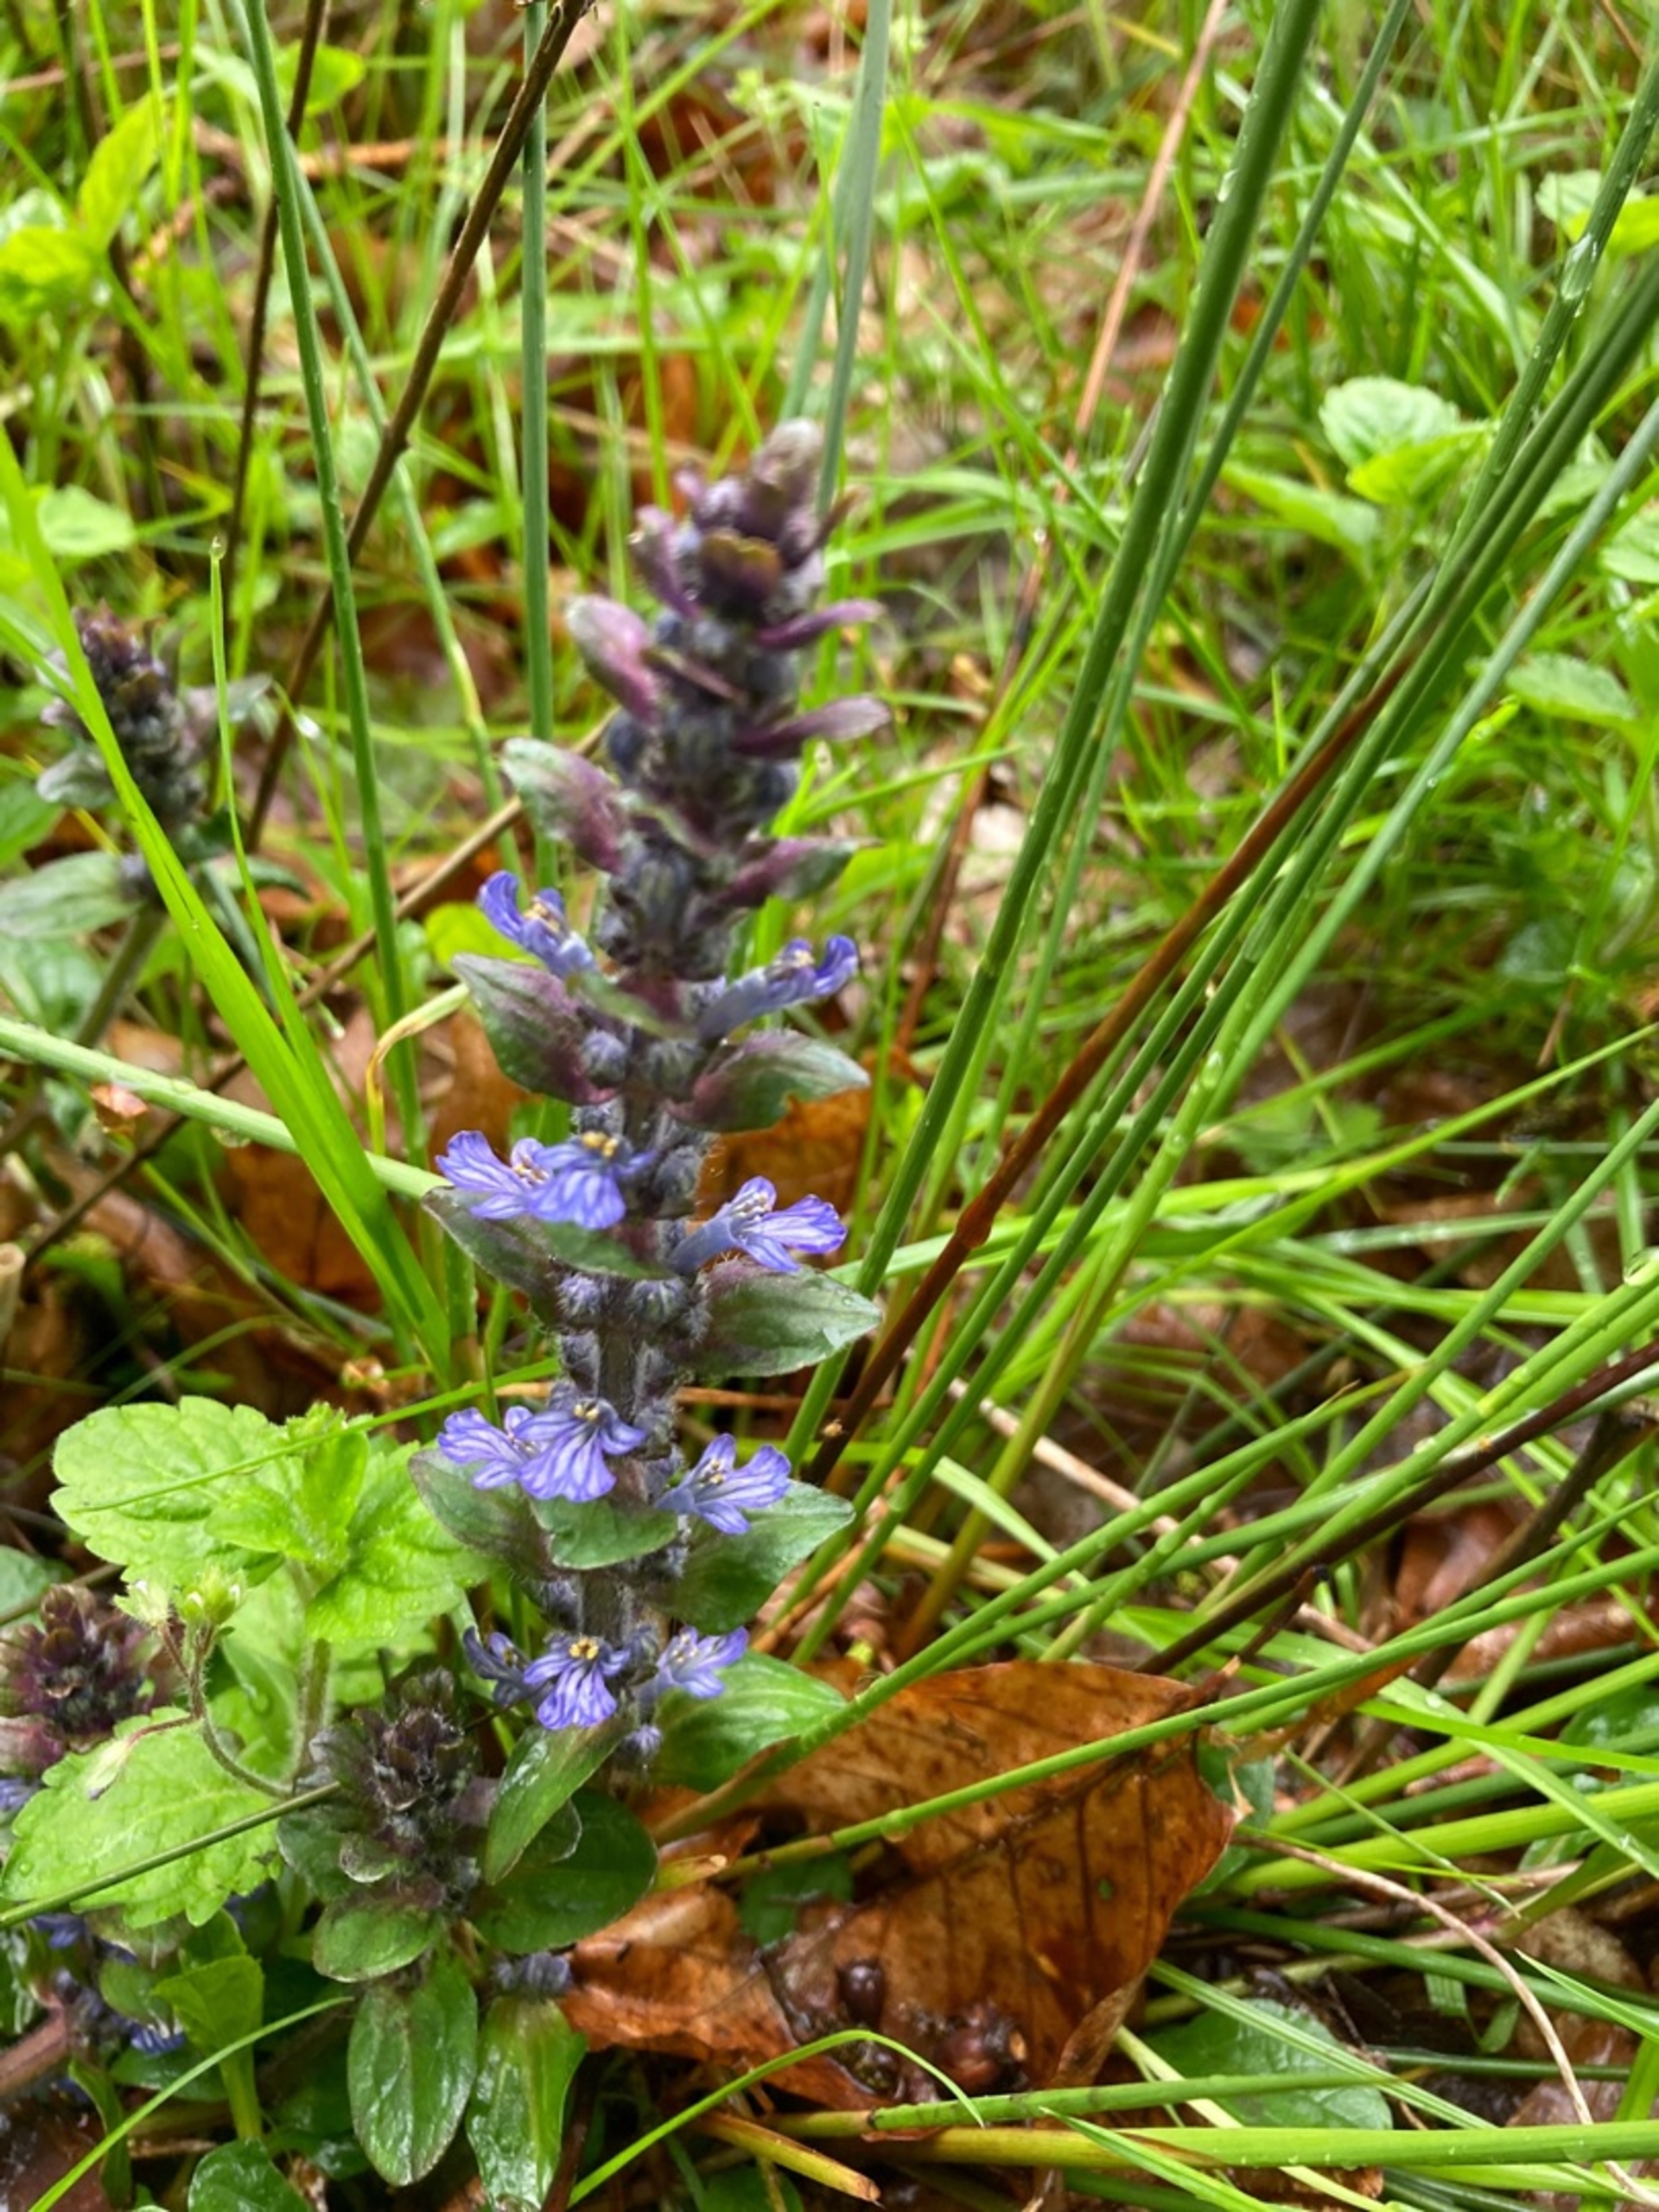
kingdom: Plantae
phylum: Tracheophyta
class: Magnoliopsida
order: Lamiales
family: Lamiaceae
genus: Ajuga
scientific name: Ajuga reptans
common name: Krybende læbeløs
